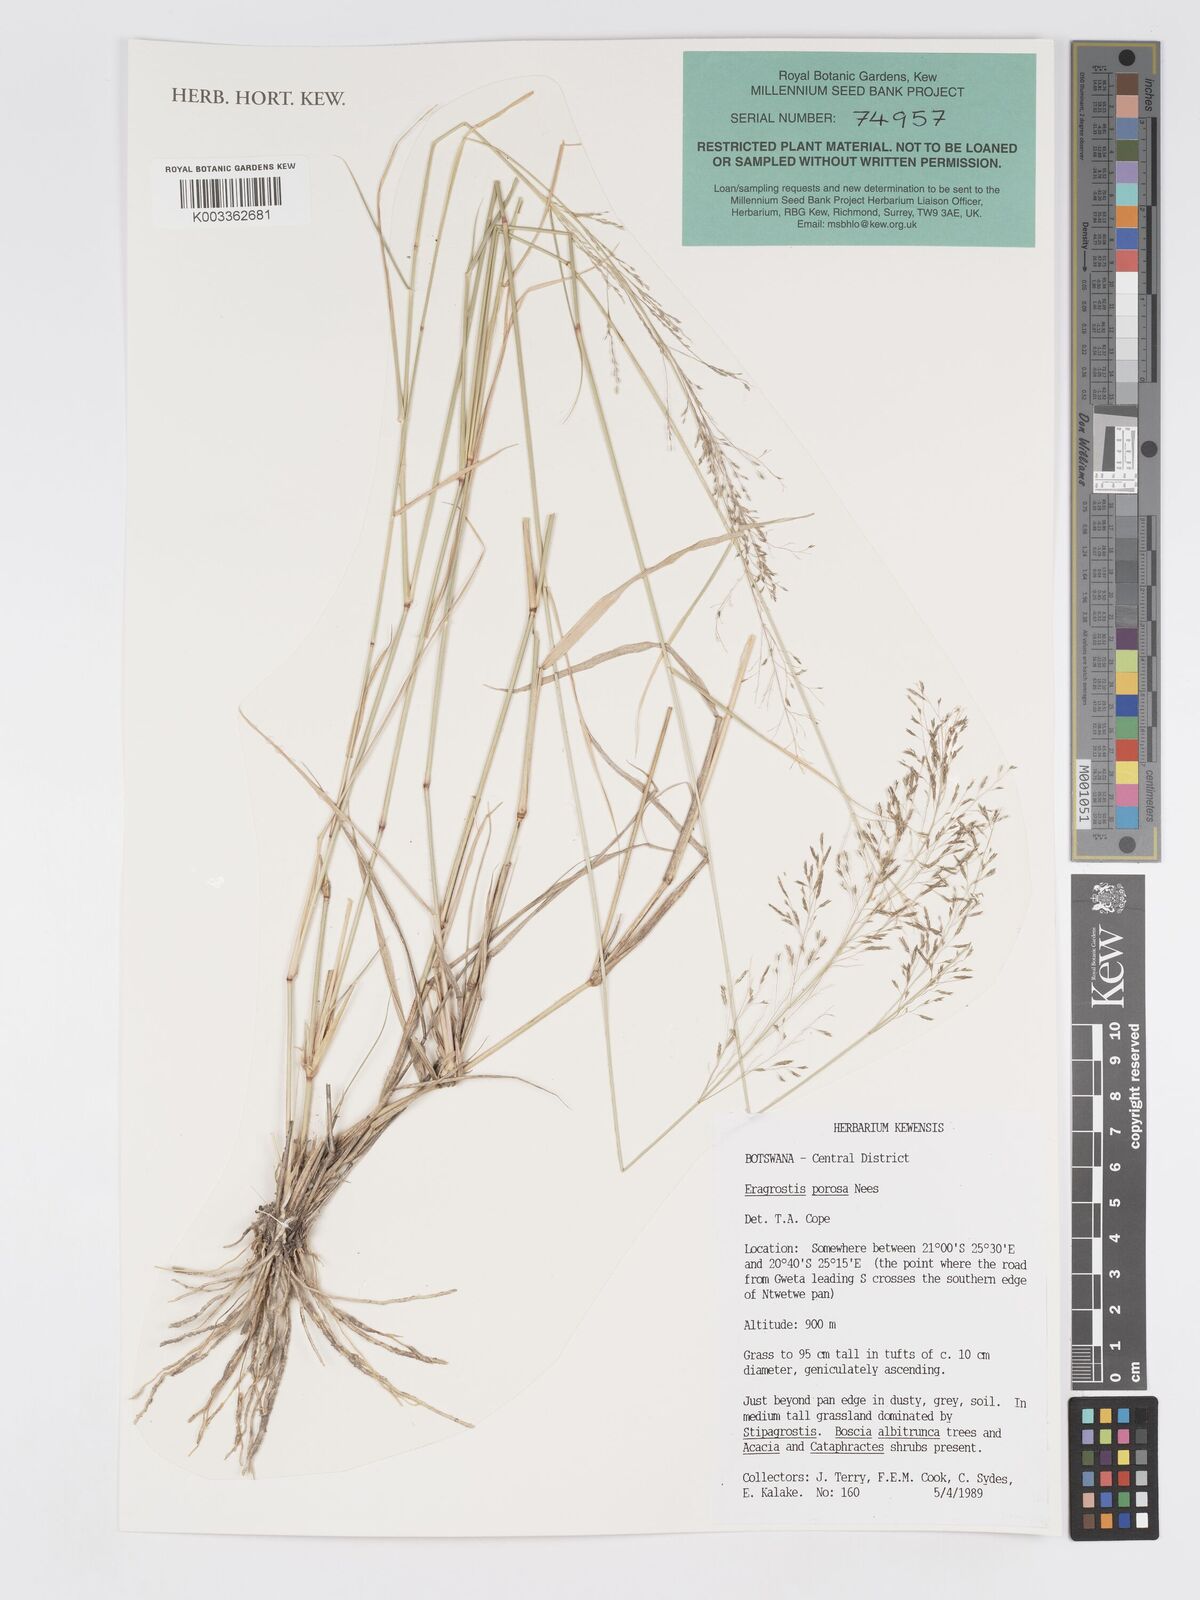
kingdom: Plantae
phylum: Tracheophyta
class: Liliopsida
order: Poales
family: Poaceae
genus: Eragrostis
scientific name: Eragrostis porosa
